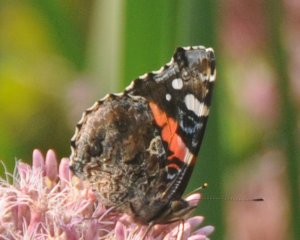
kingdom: Animalia
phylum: Arthropoda
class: Insecta
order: Lepidoptera
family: Nymphalidae
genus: Vanessa
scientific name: Vanessa atalanta
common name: Red Admiral
